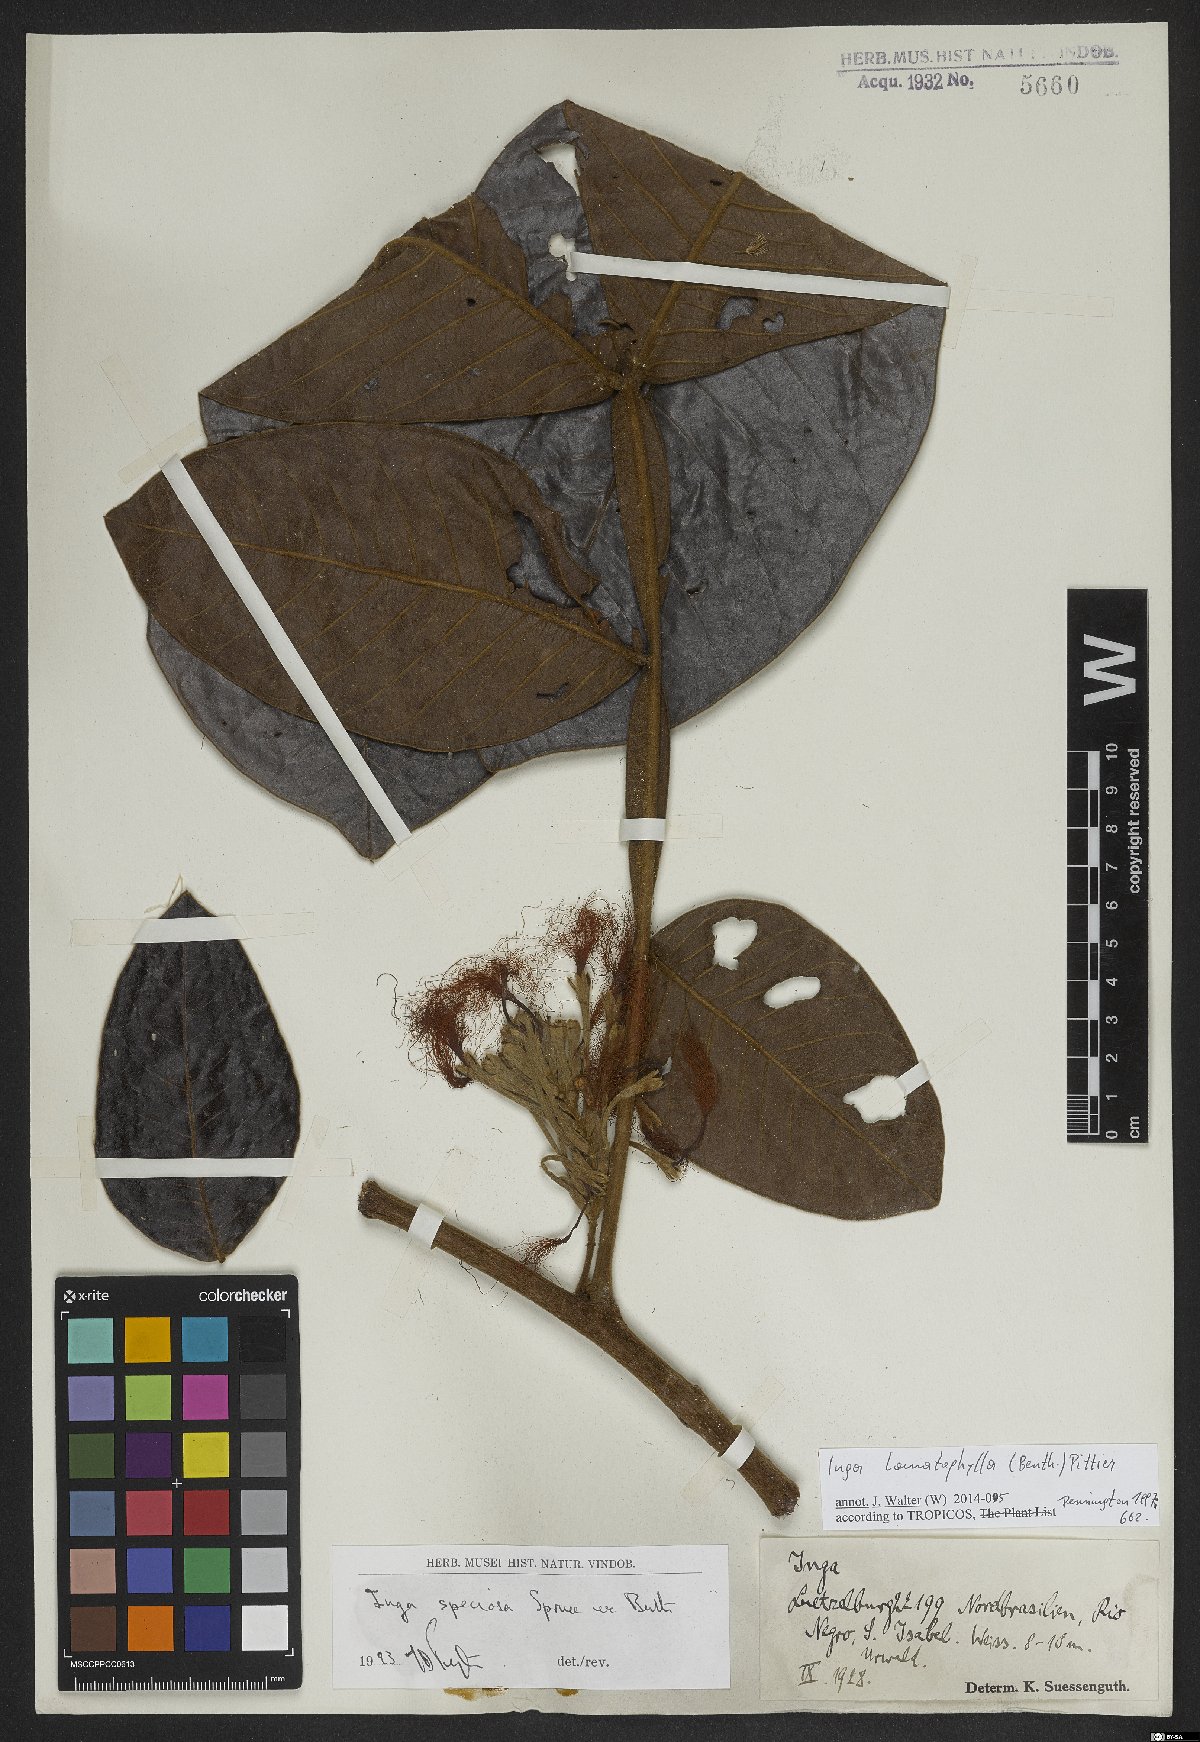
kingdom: Plantae
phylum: Tracheophyta
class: Magnoliopsida
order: Fabales
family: Fabaceae
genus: Inga
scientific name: Inga lomatophylla
